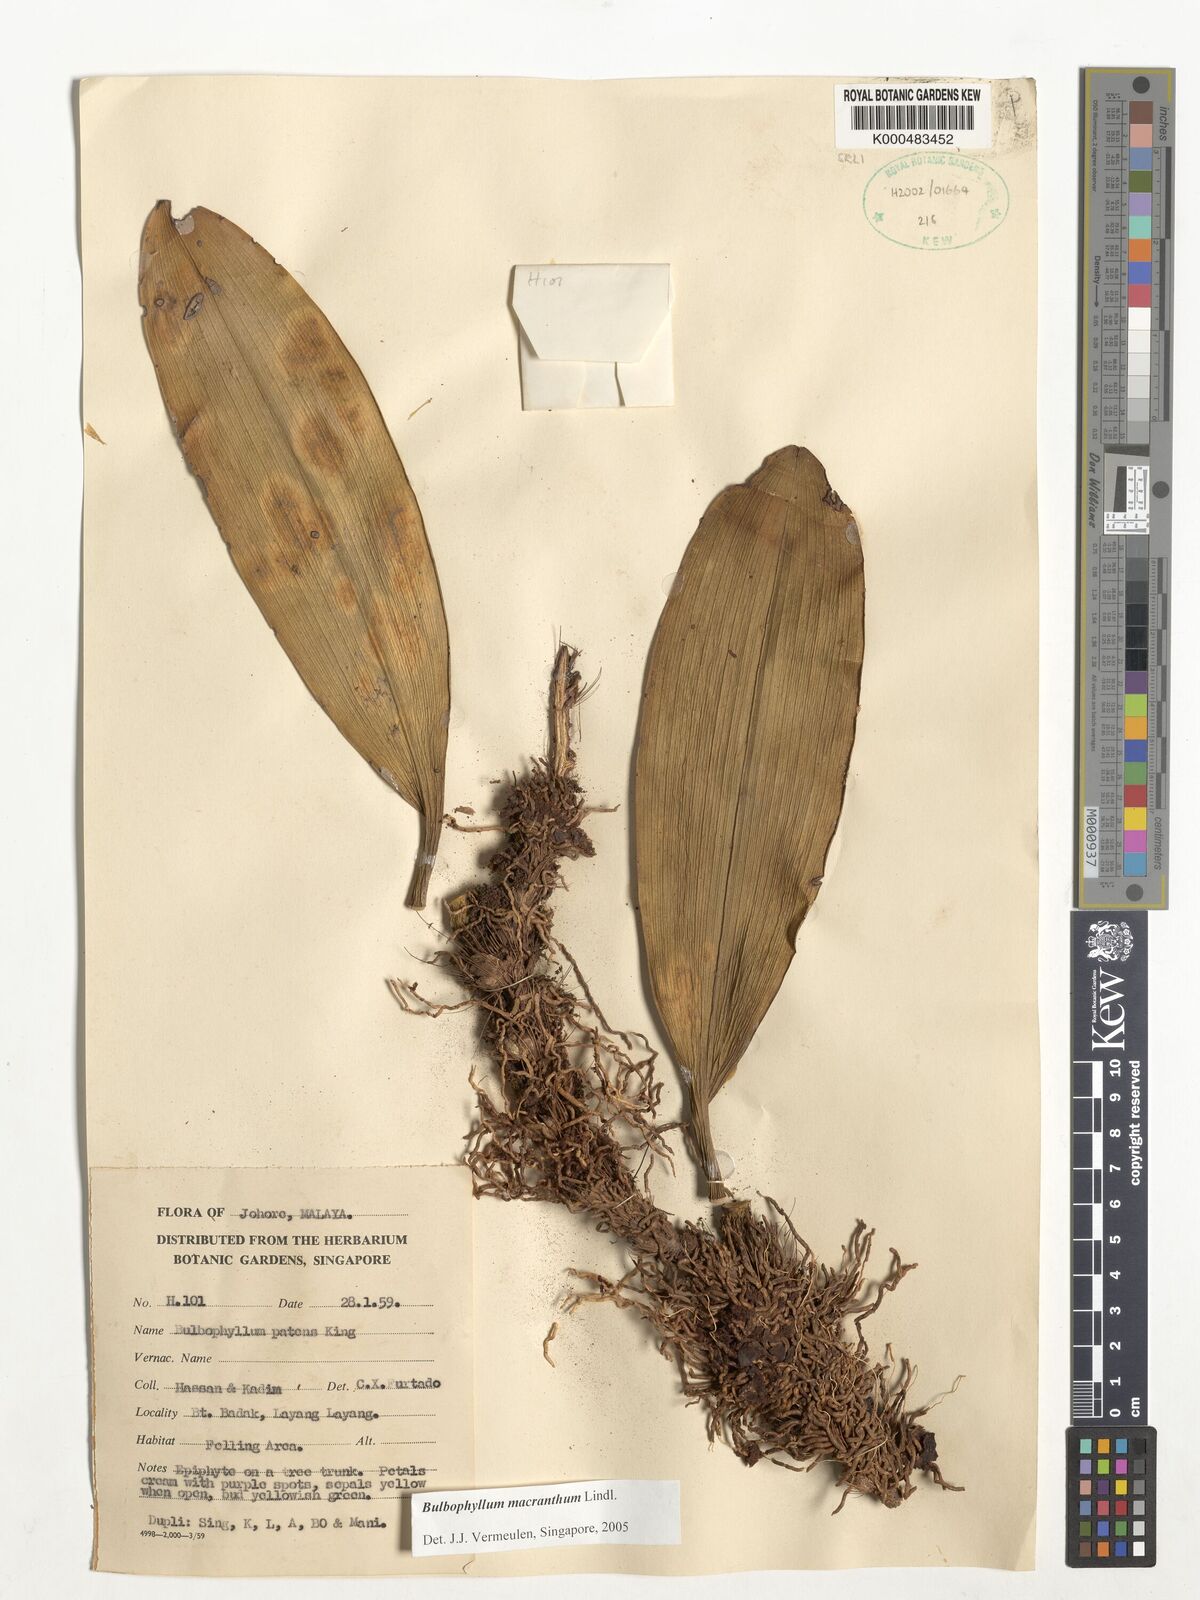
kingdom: Plantae
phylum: Tracheophyta
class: Liliopsida
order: Asparagales
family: Orchidaceae
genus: Bulbophyllum
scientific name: Bulbophyllum macranthum
